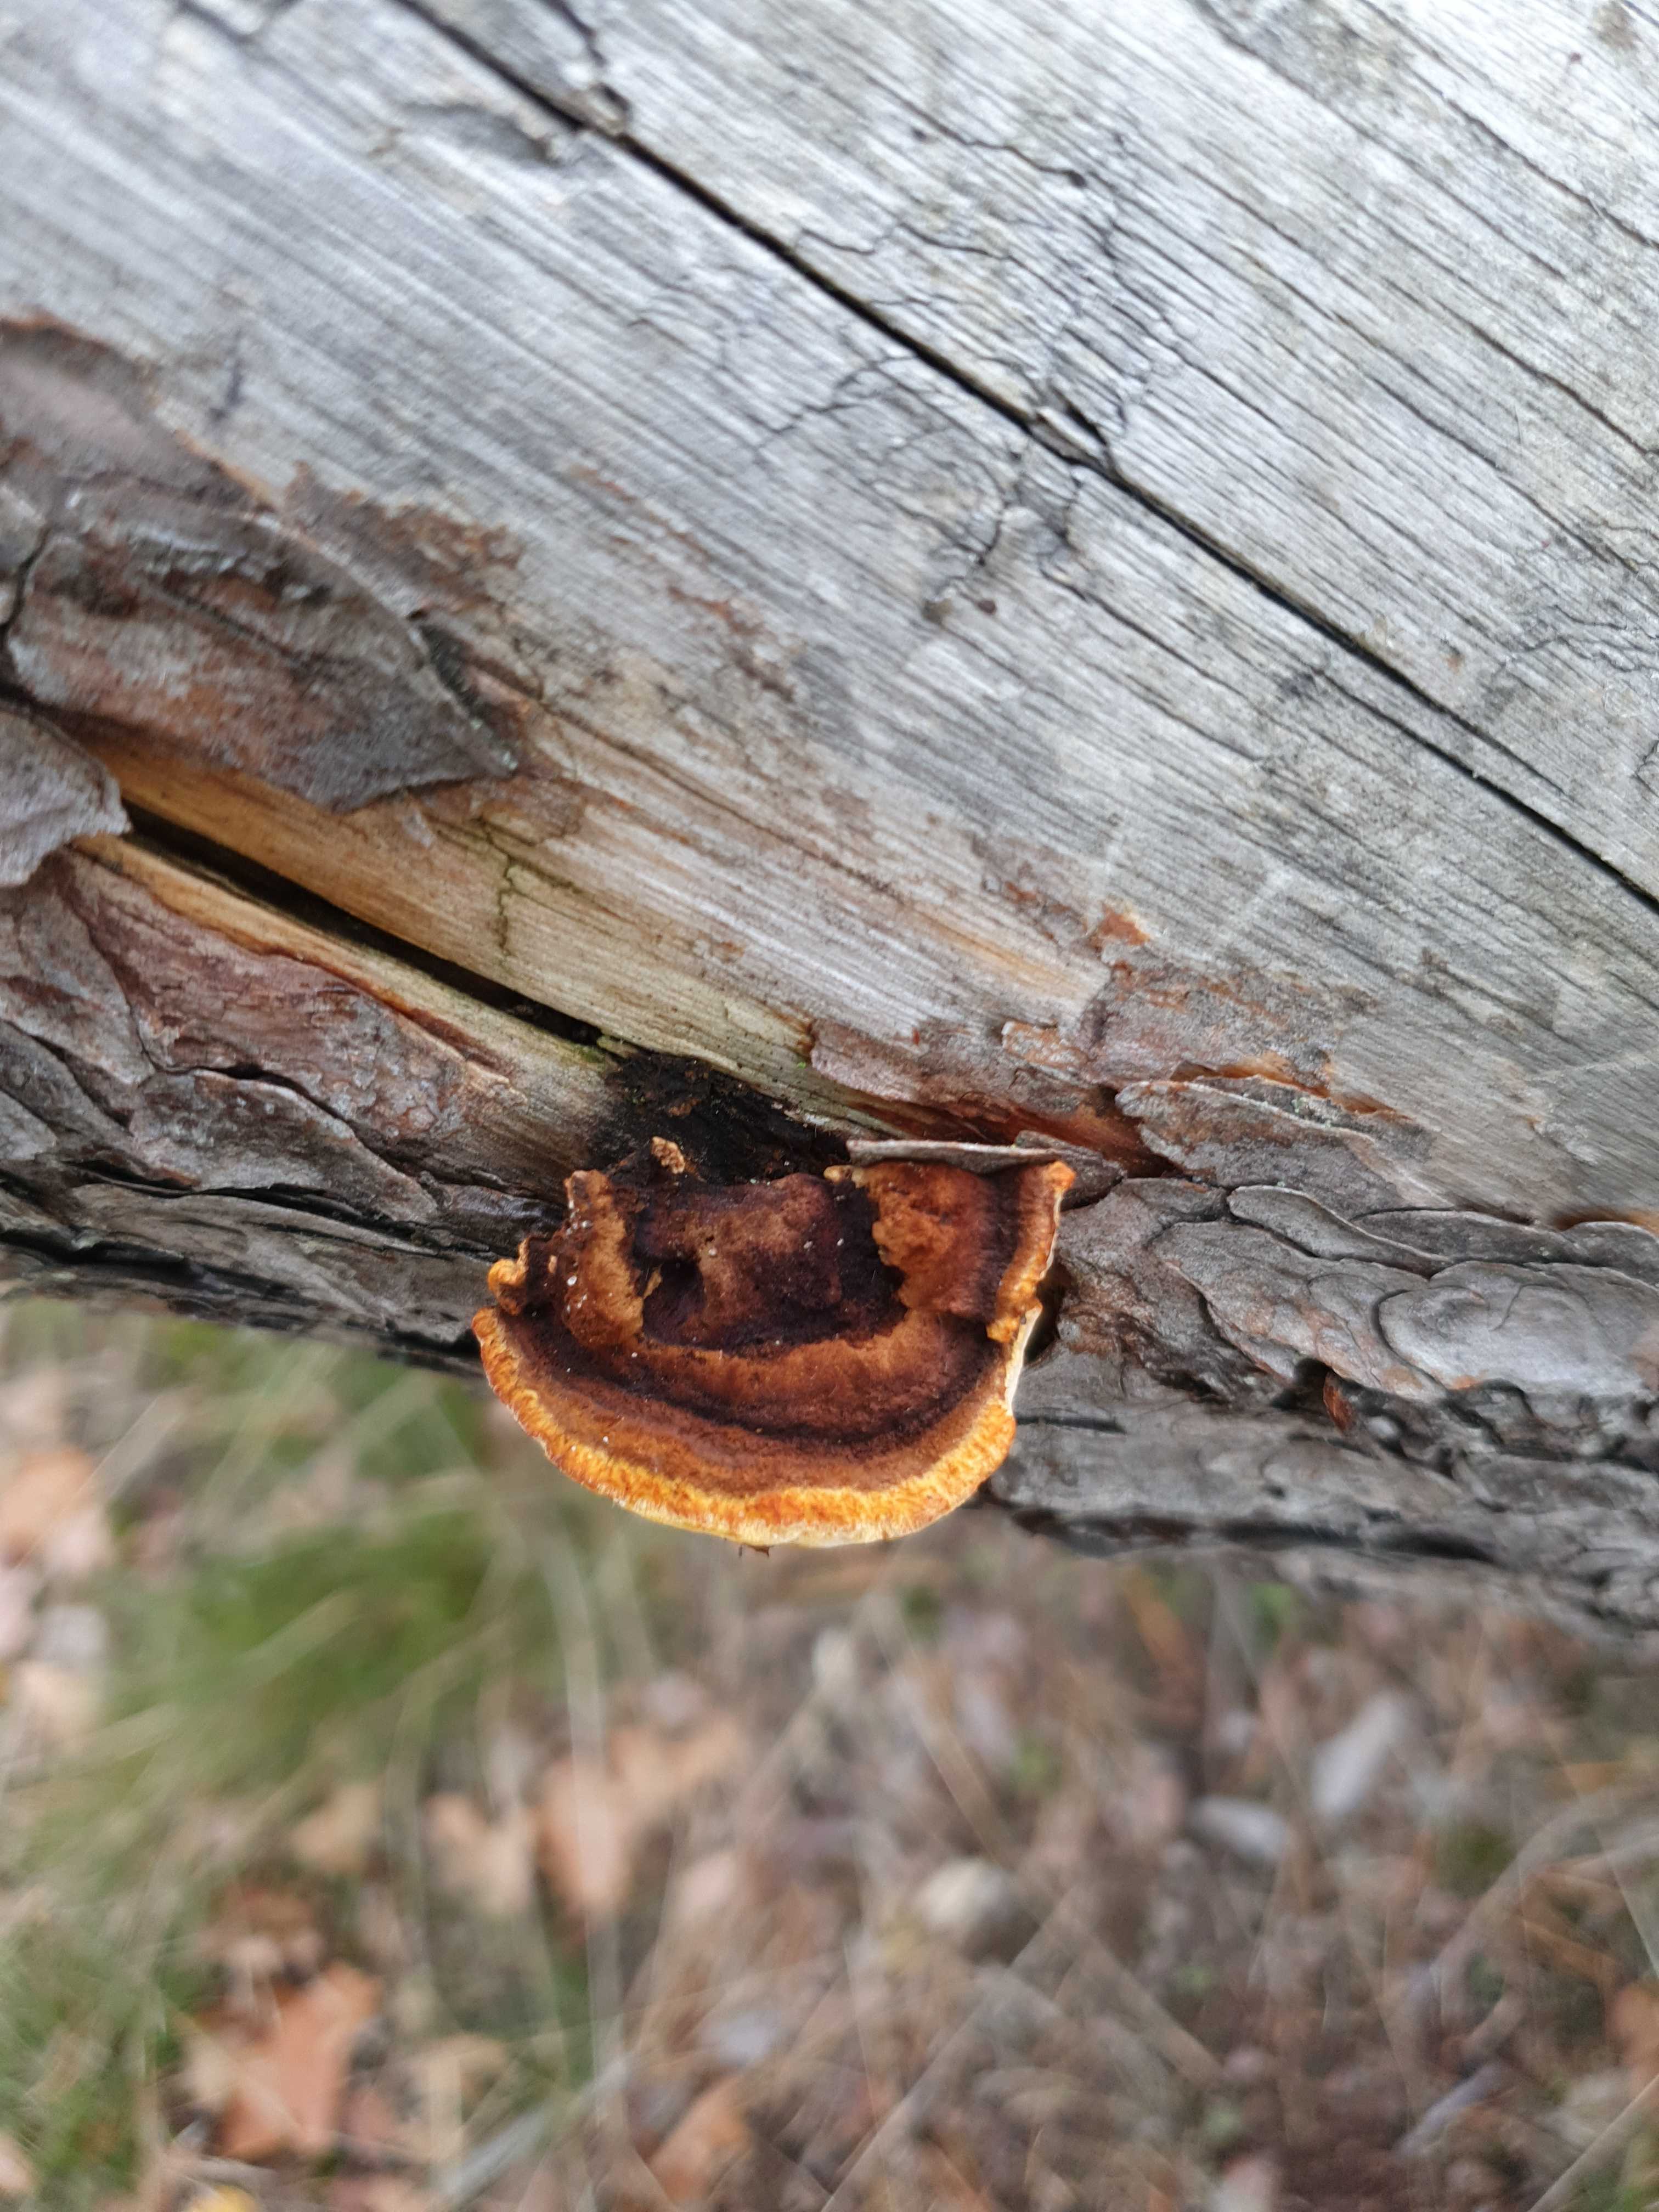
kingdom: Fungi
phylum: Basidiomycota
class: Agaricomycetes
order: Gloeophyllales
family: Gloeophyllaceae
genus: Gloeophyllum
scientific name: Gloeophyllum sepiarium
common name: fyrre-korkhat
